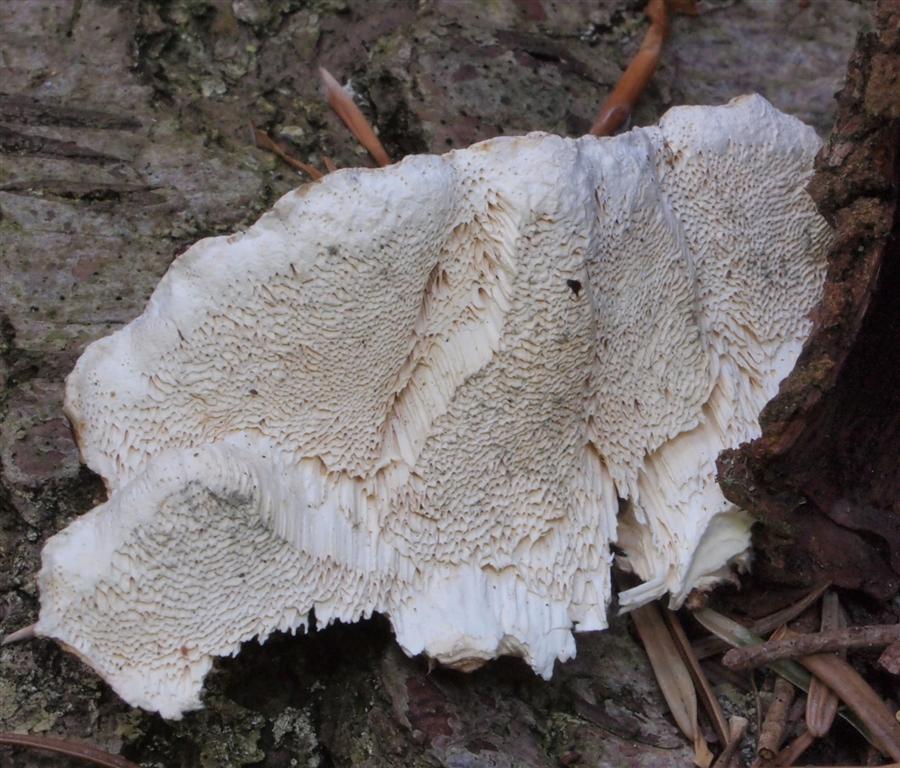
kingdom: Fungi
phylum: Basidiomycota
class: Agaricomycetes
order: Russulales
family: Bondarzewiaceae
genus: Heterobasidion
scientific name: Heterobasidion annosum
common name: almindelig rodfordærver
